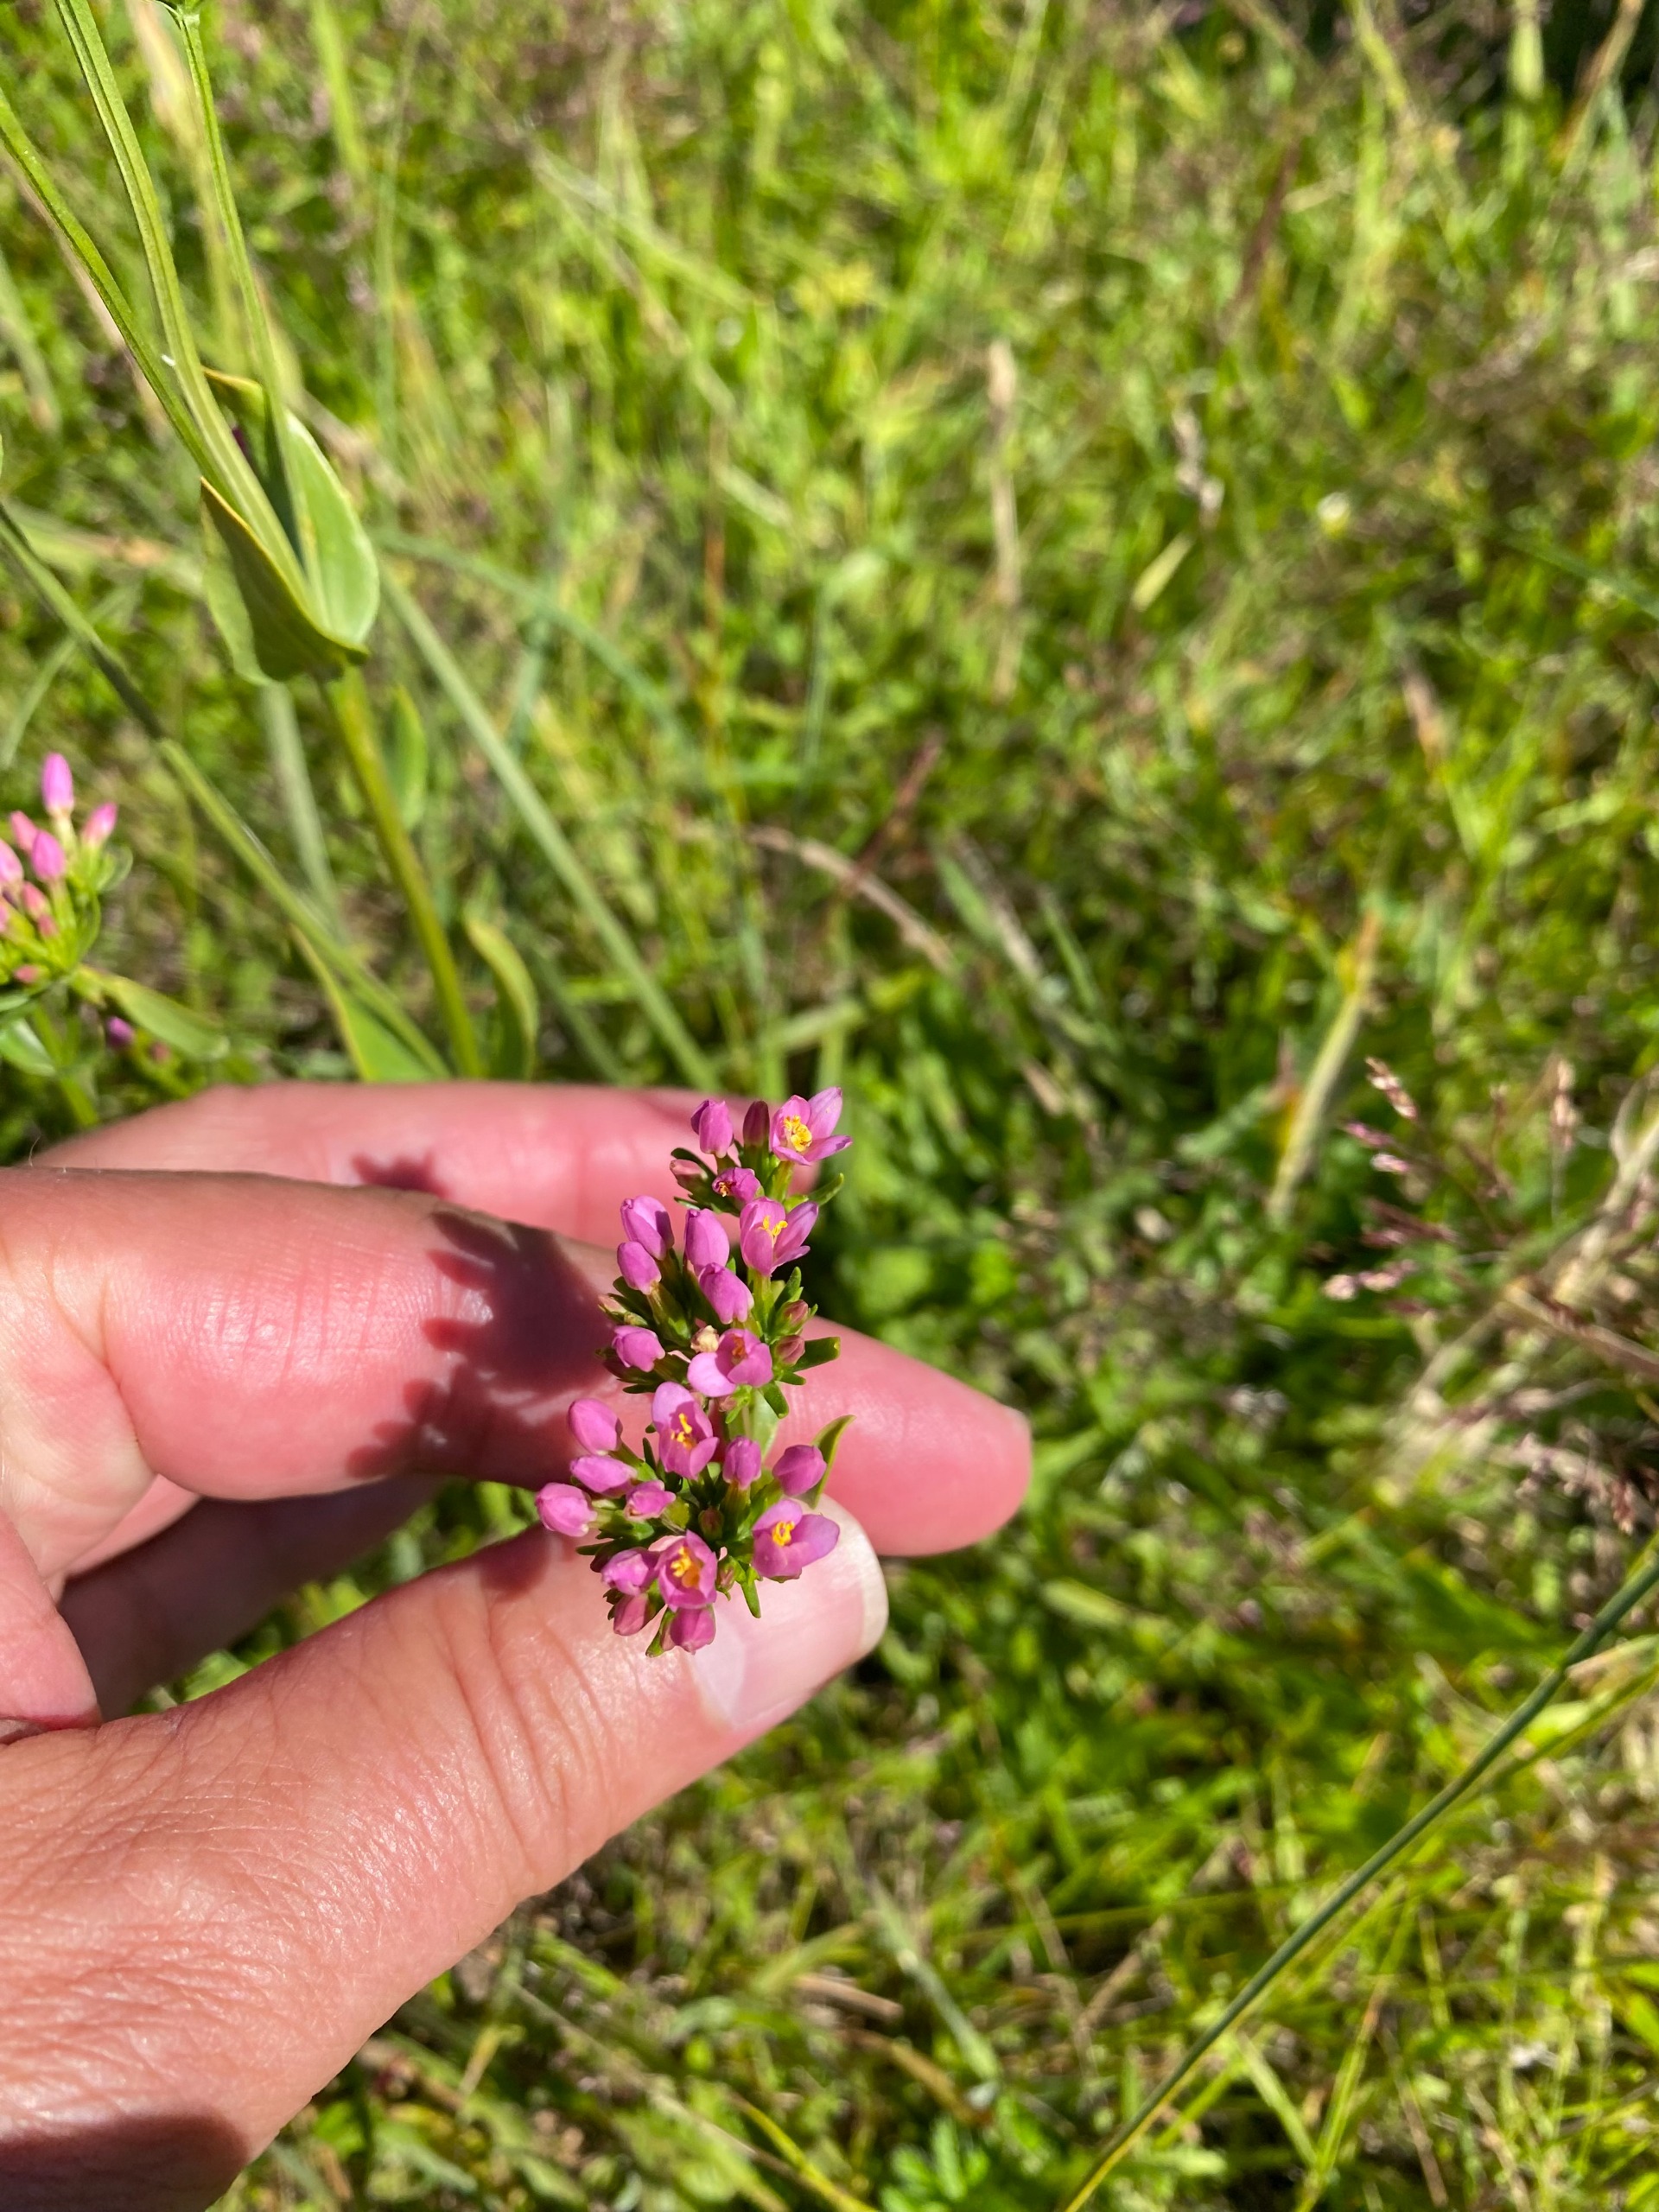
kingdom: Plantae
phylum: Tracheophyta
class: Magnoliopsida
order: Gentianales
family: Gentianaceae
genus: Centaurium
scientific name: Centaurium erythraea
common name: Mark-tusindgylden
